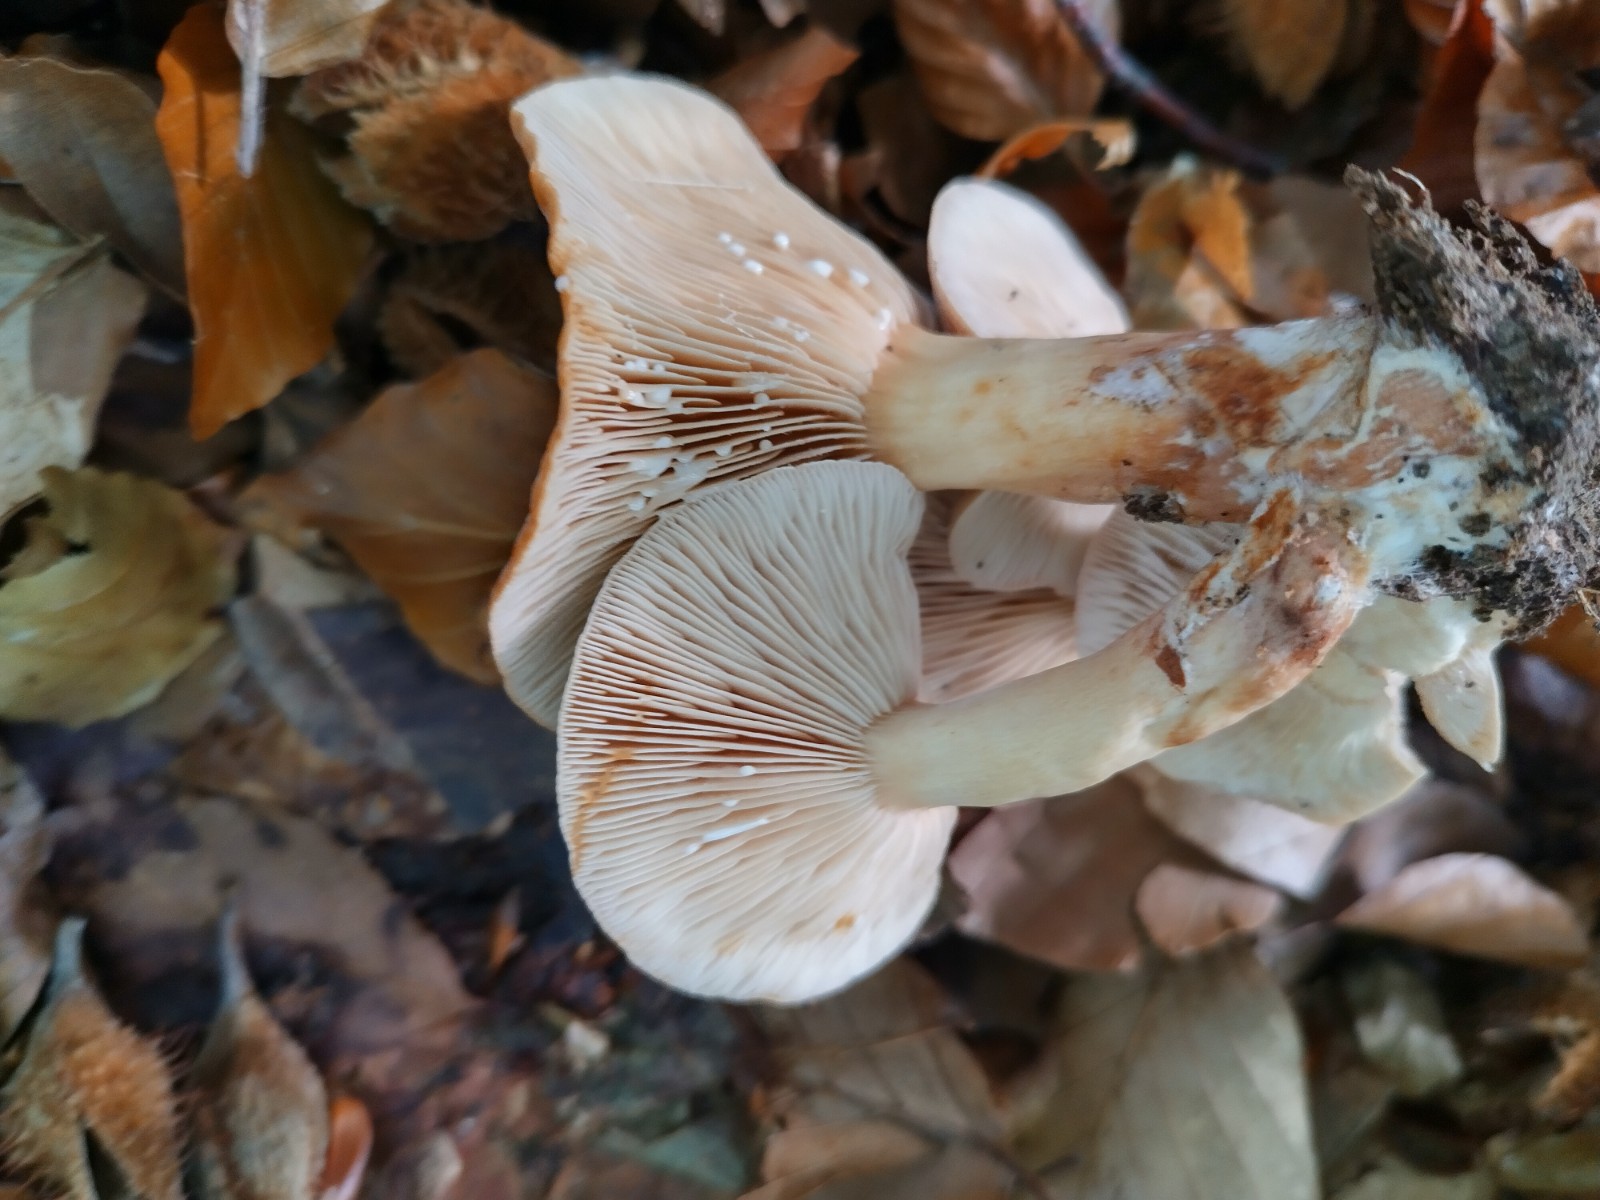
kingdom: Fungi
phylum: Basidiomycota
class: Agaricomycetes
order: Russulales
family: Russulaceae
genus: Lactarius
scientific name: Lactarius subdulcis
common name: sødlig mælkehat
